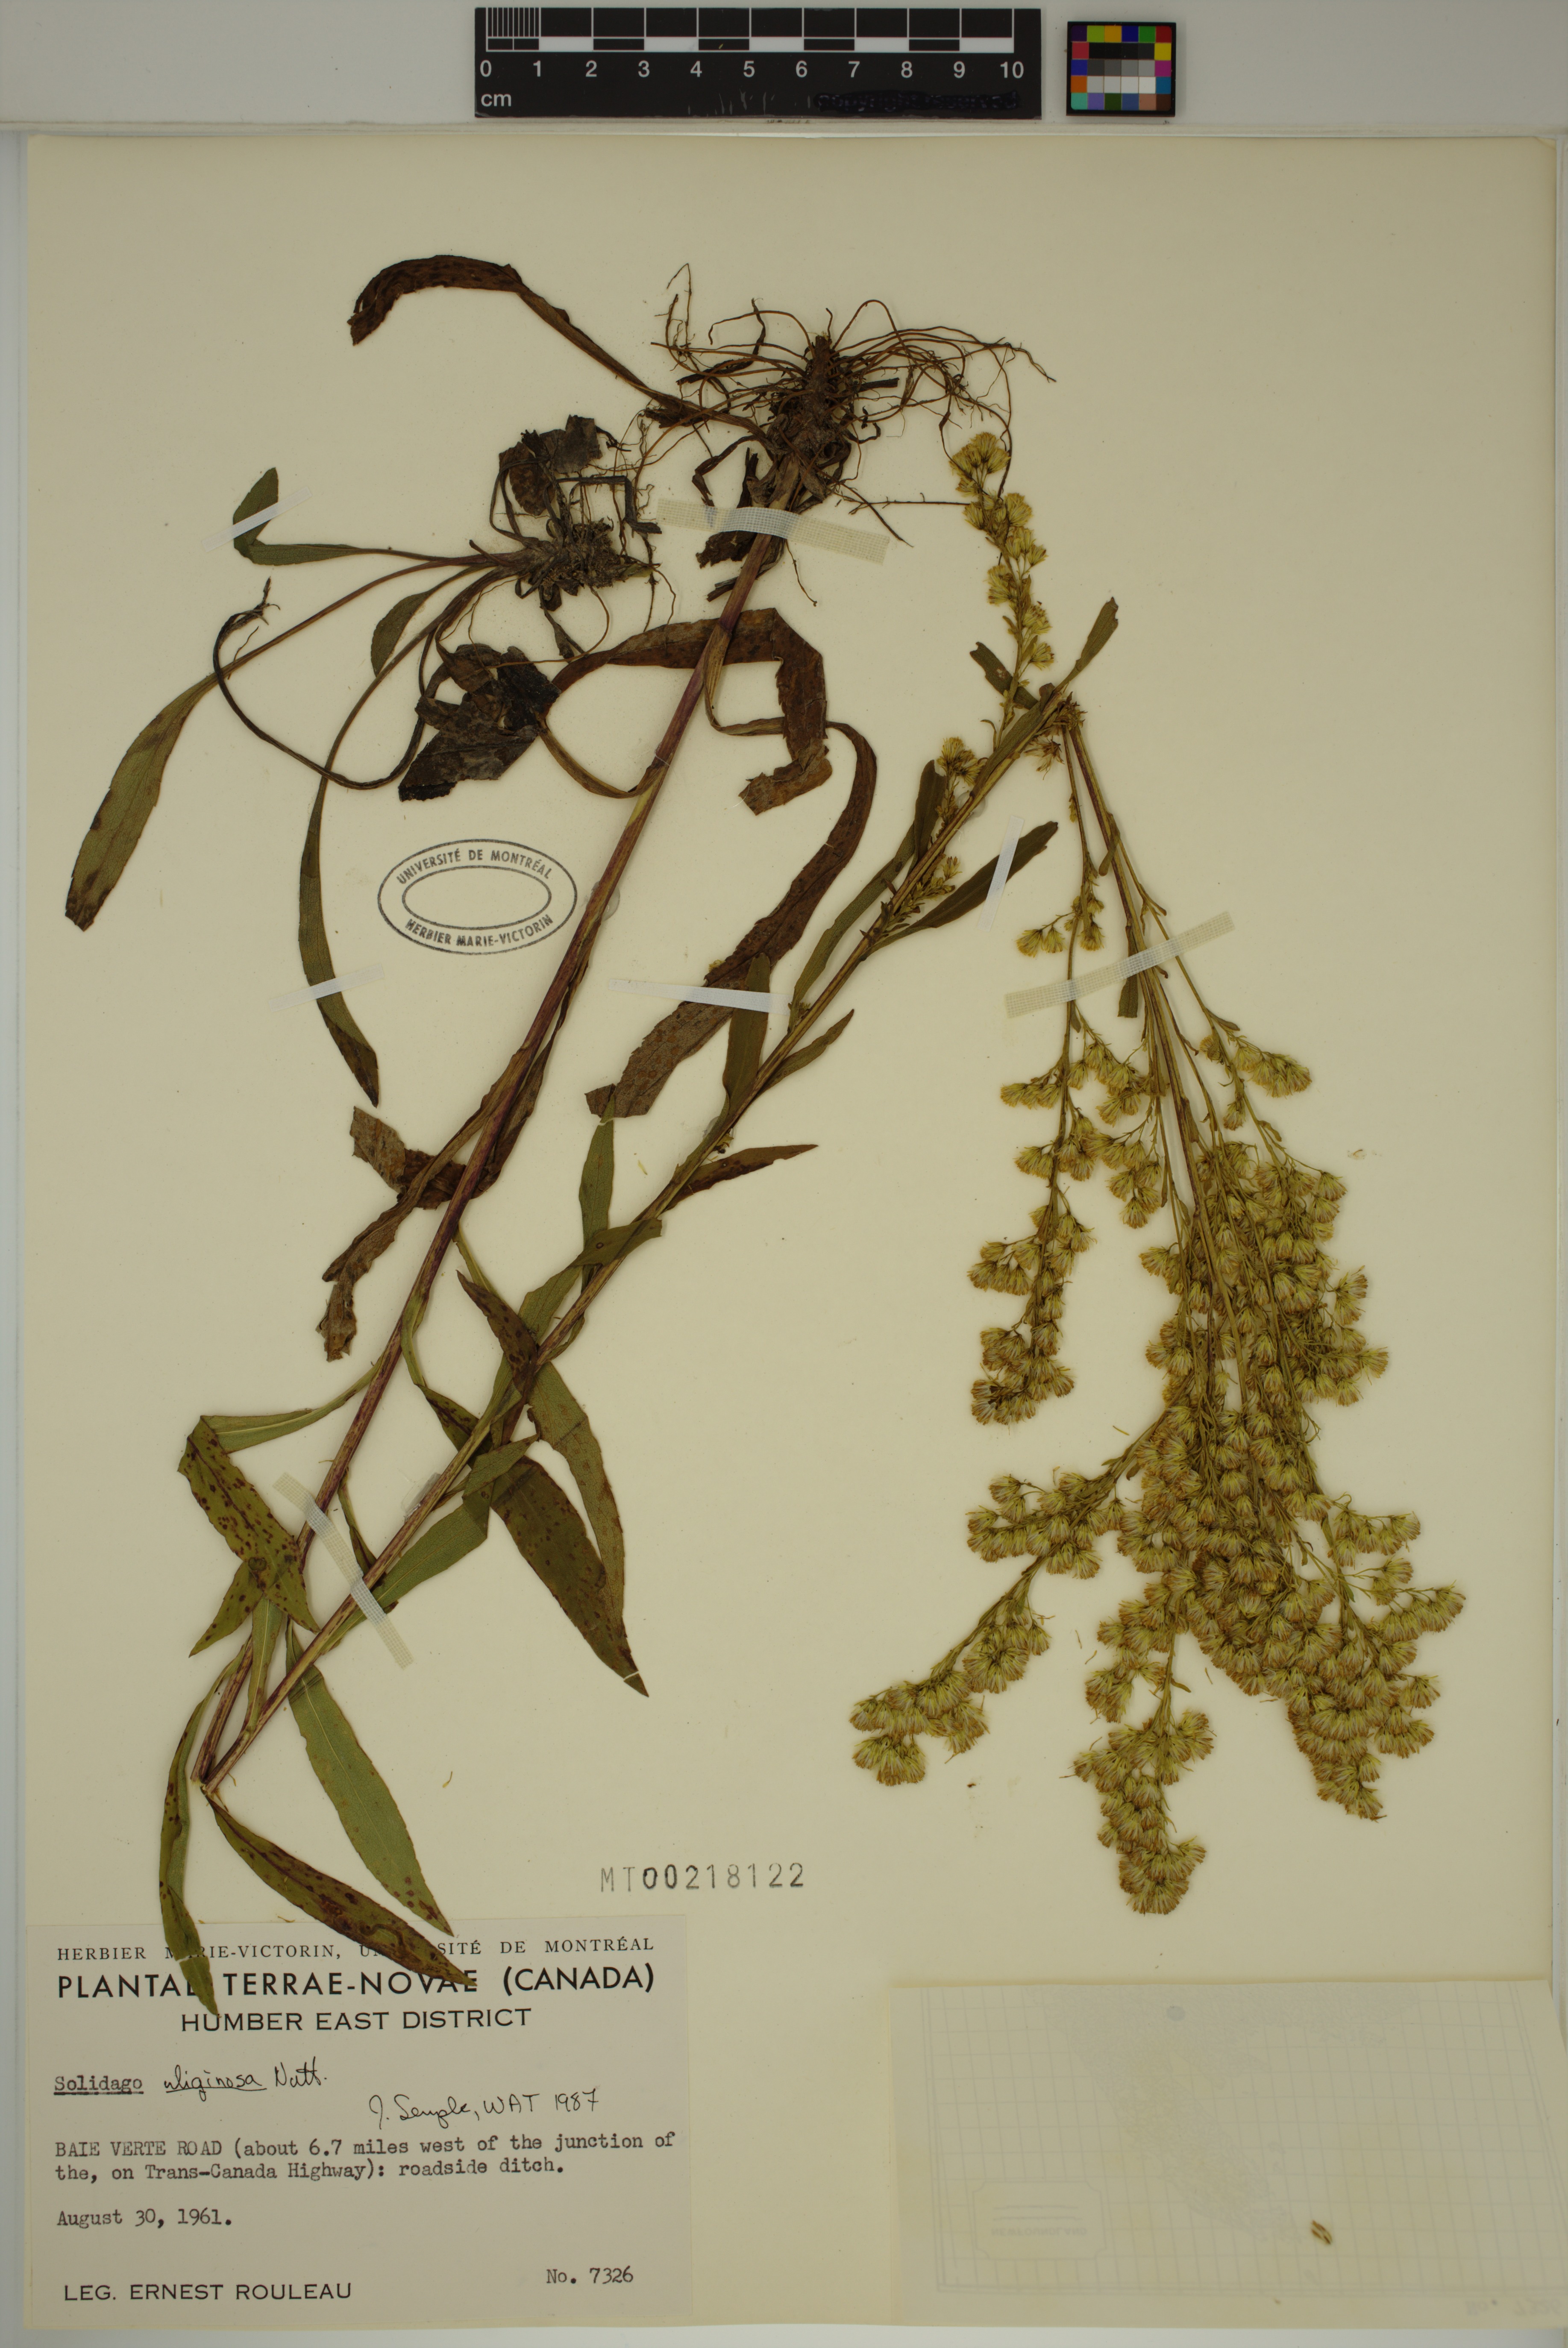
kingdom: Plantae
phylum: Tracheophyta
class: Magnoliopsida
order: Asterales
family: Asteraceae
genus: Solidago
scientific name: Solidago uliginosa
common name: Bog goldenrod
